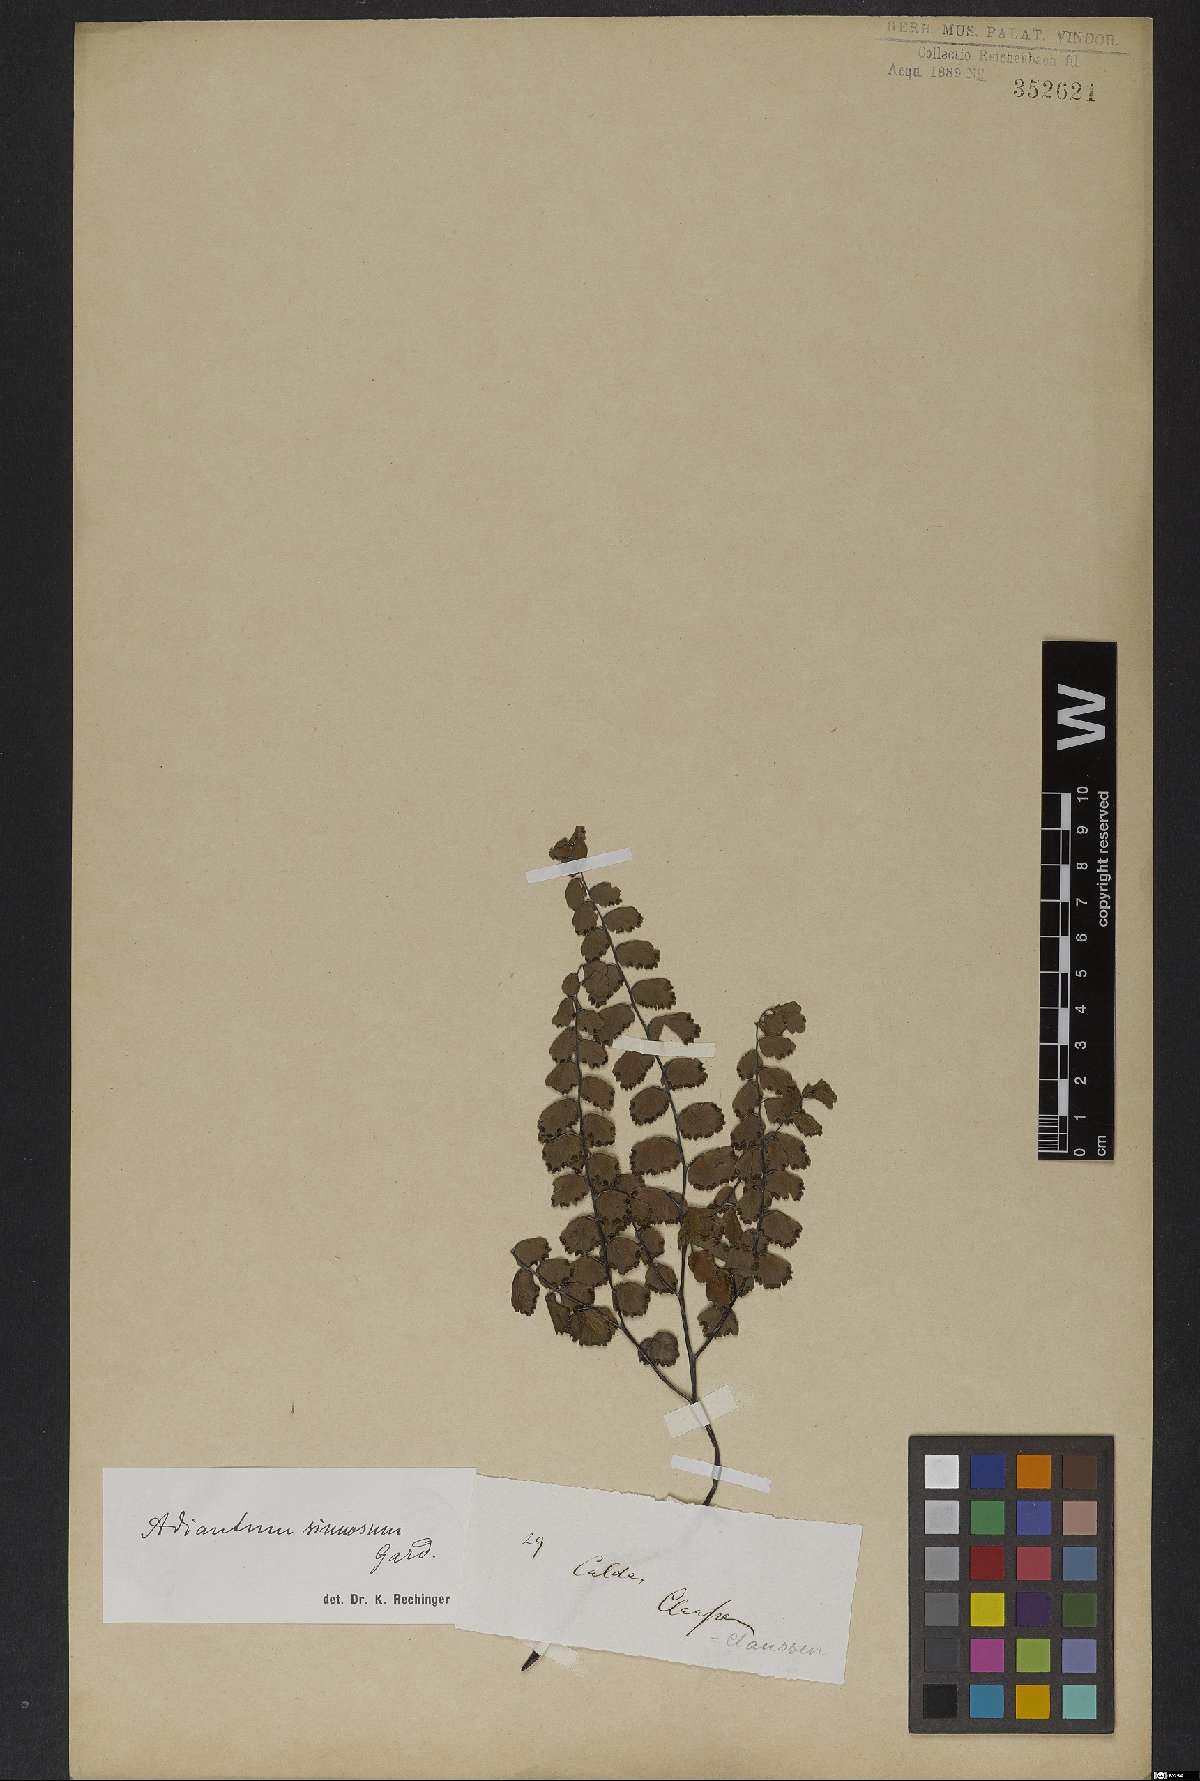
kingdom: Plantae
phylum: Tracheophyta
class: Polypodiopsida
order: Polypodiales
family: Pteridaceae
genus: Adiantum
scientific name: Adiantum sinuosum
